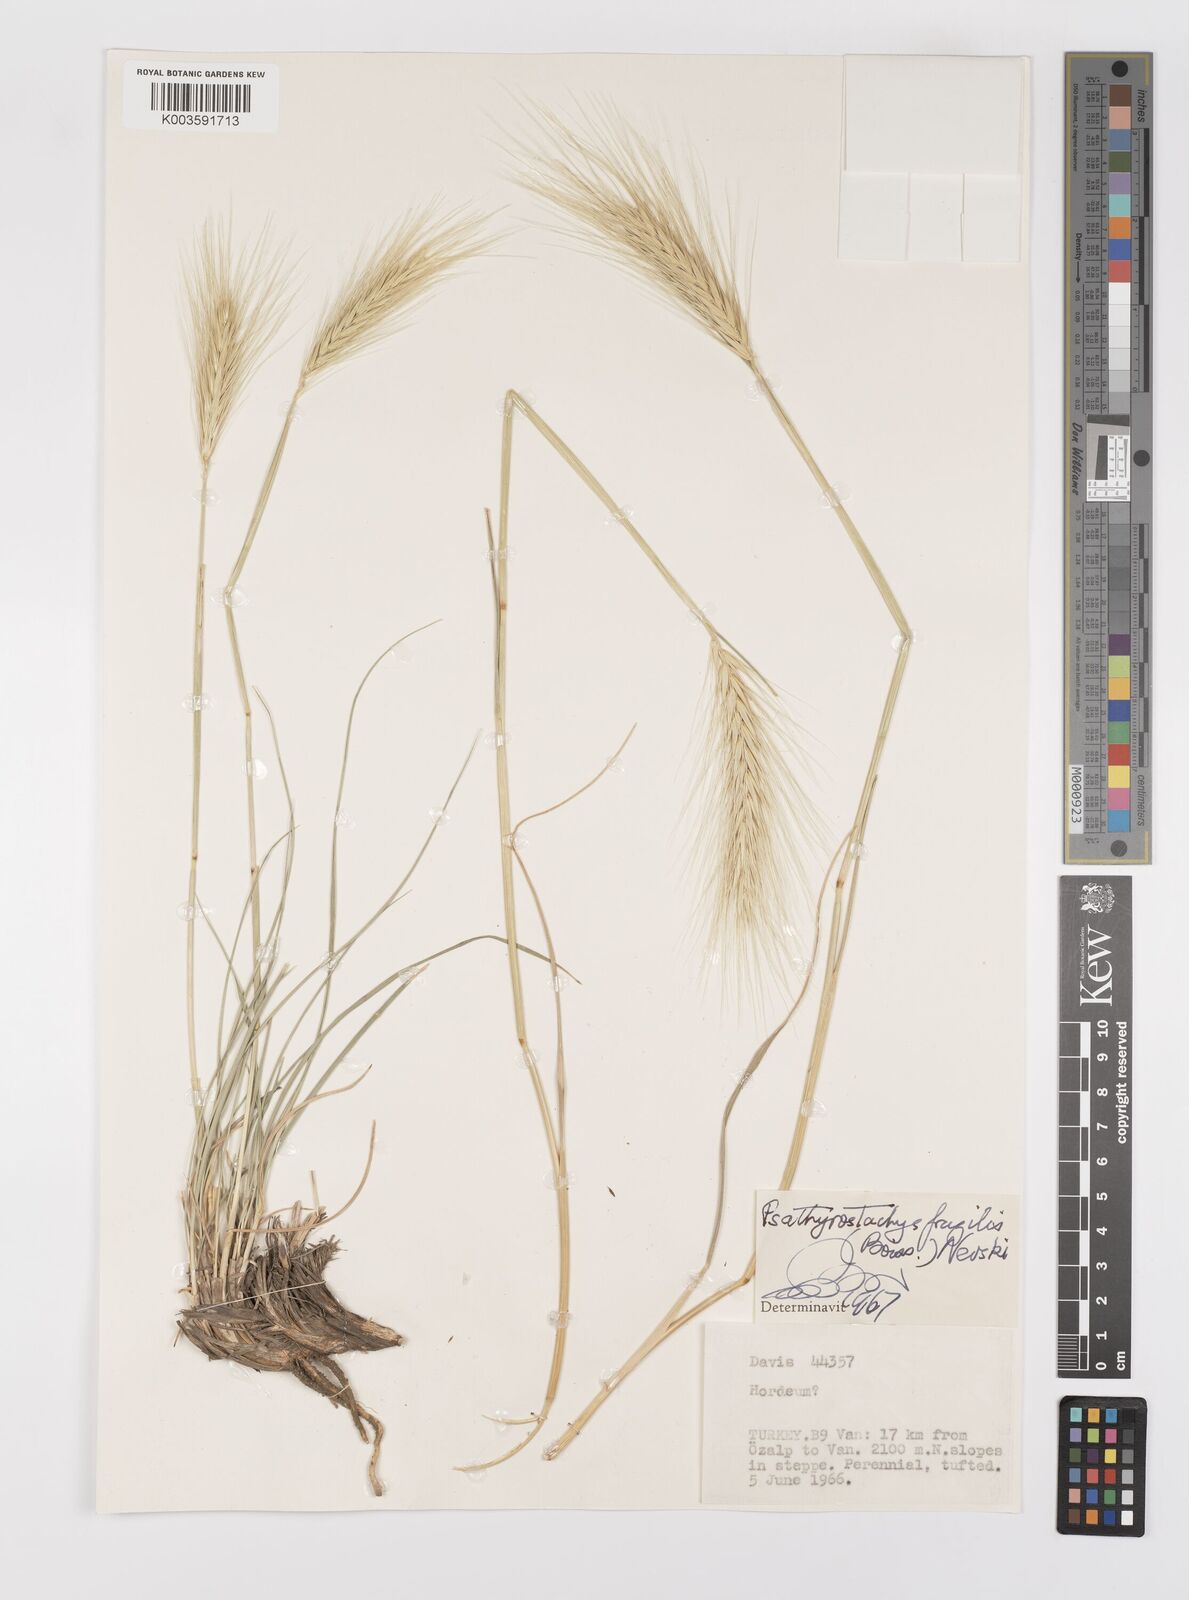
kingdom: Plantae
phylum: Tracheophyta
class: Liliopsida
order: Poales
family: Poaceae
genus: Psathyrostachys
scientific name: Psathyrostachys fragilis
